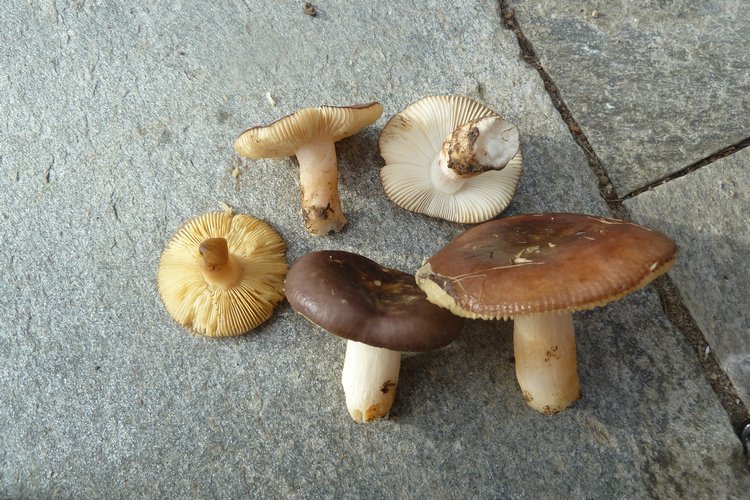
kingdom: Fungi
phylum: Basidiomycota
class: Agaricomycetes
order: Russulales
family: Russulaceae
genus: Russula
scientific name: Russula versicolor
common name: foranderlig skørhat
